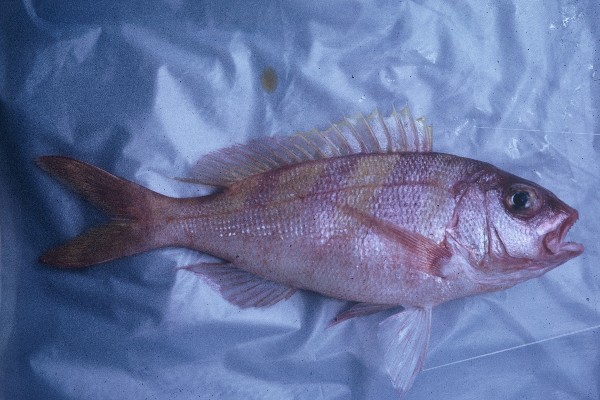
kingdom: Animalia
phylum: Chordata
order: Perciformes
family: Lutjanidae
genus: Pristipomoides
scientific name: Pristipomoides zonatus
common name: Brigham's snapper fish
